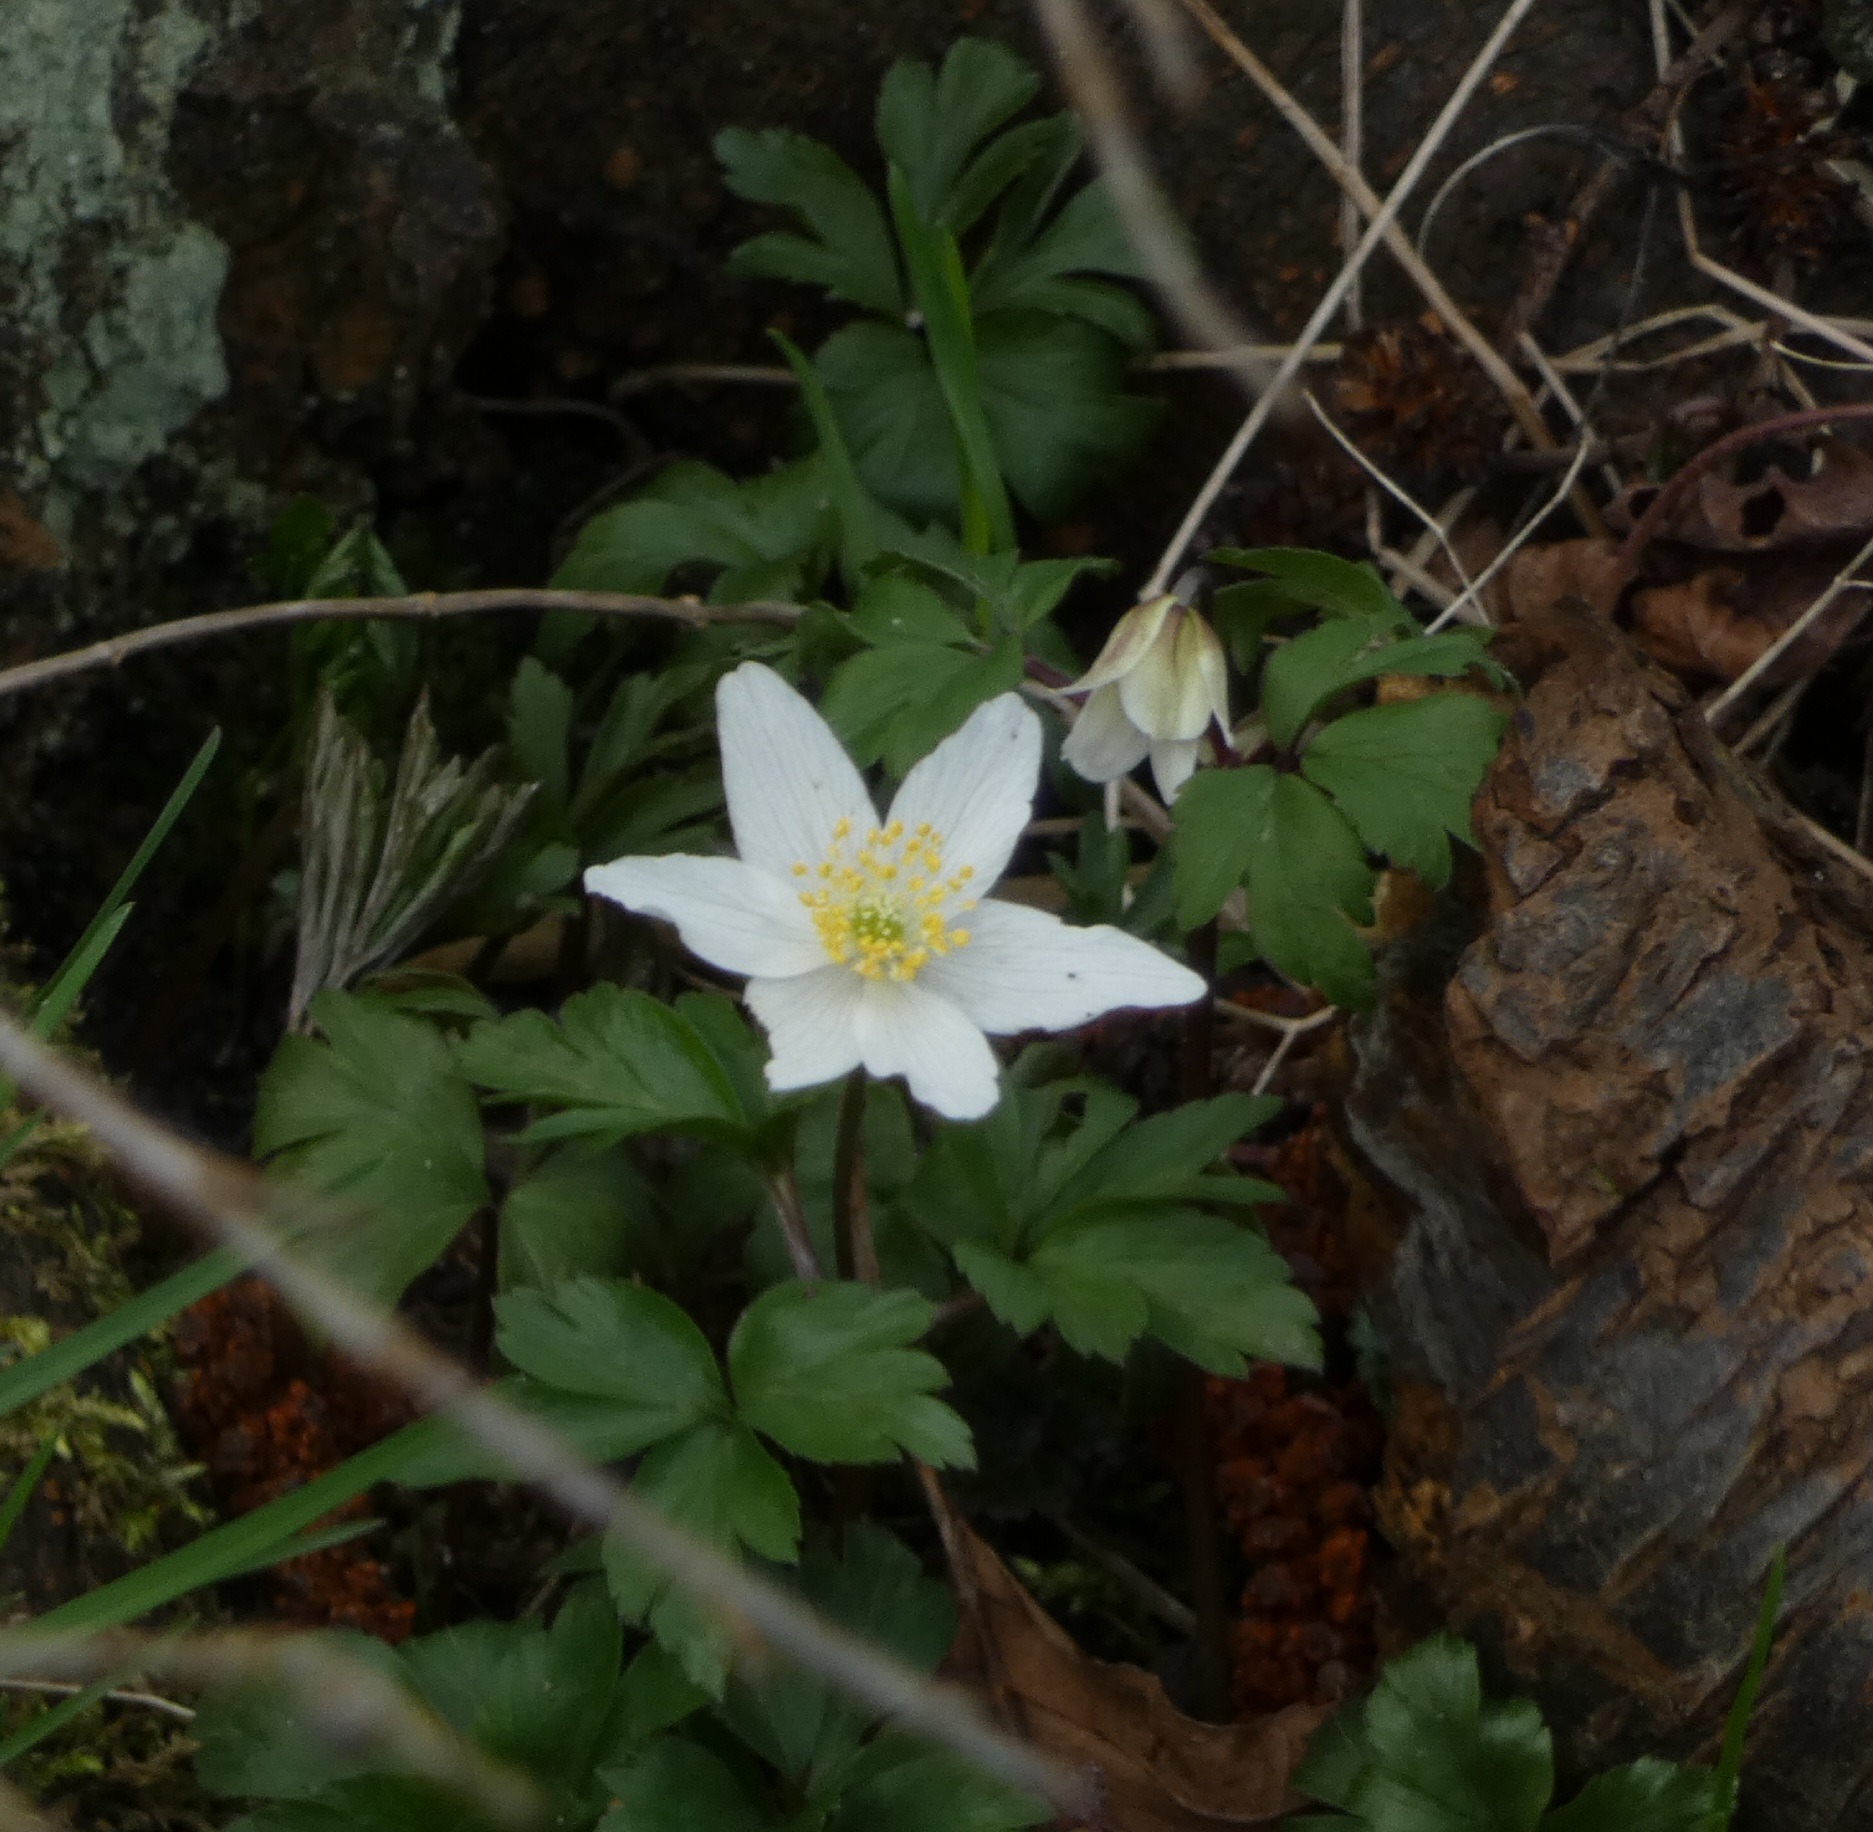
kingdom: Plantae
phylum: Tracheophyta
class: Magnoliopsida
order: Ranunculales
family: Ranunculaceae
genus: Anemone
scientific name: Anemone nemorosa
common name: Hvid anemone
